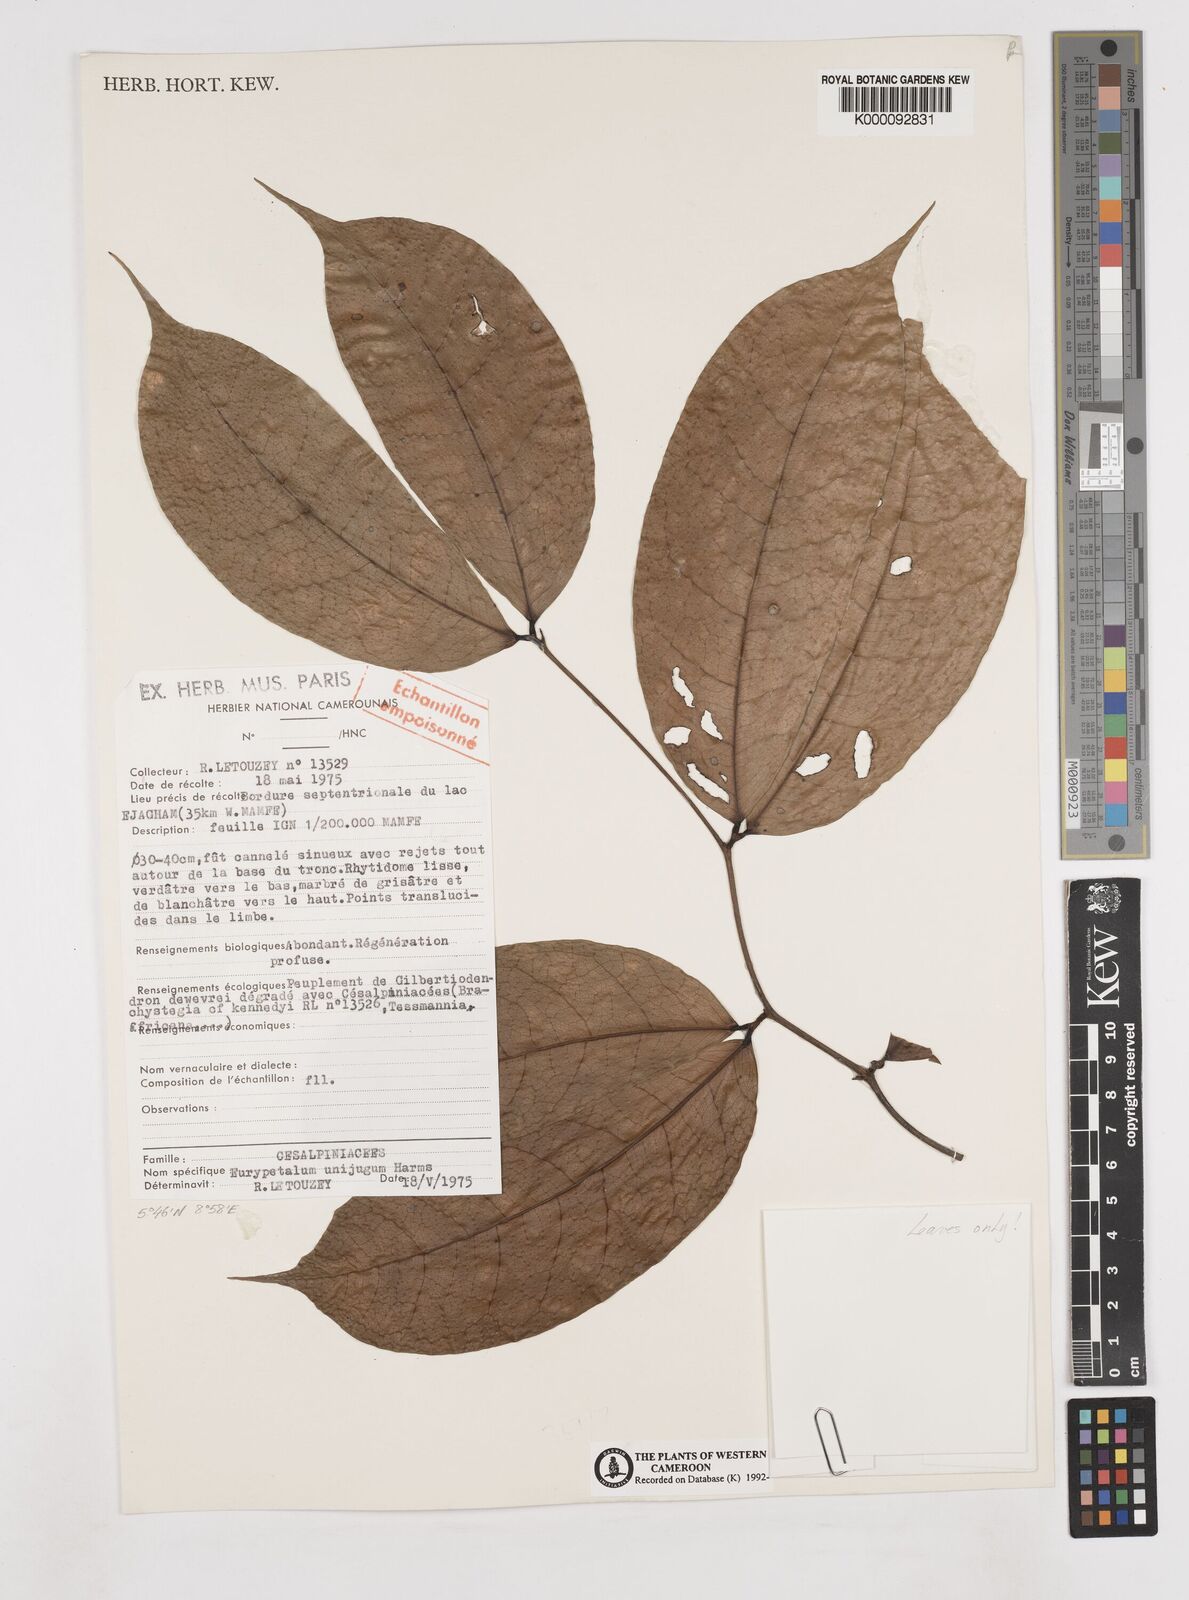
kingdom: Plantae
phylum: Tracheophyta
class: Magnoliopsida
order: Fabales
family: Fabaceae
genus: Eurypetalum
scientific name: Eurypetalum unijugum
